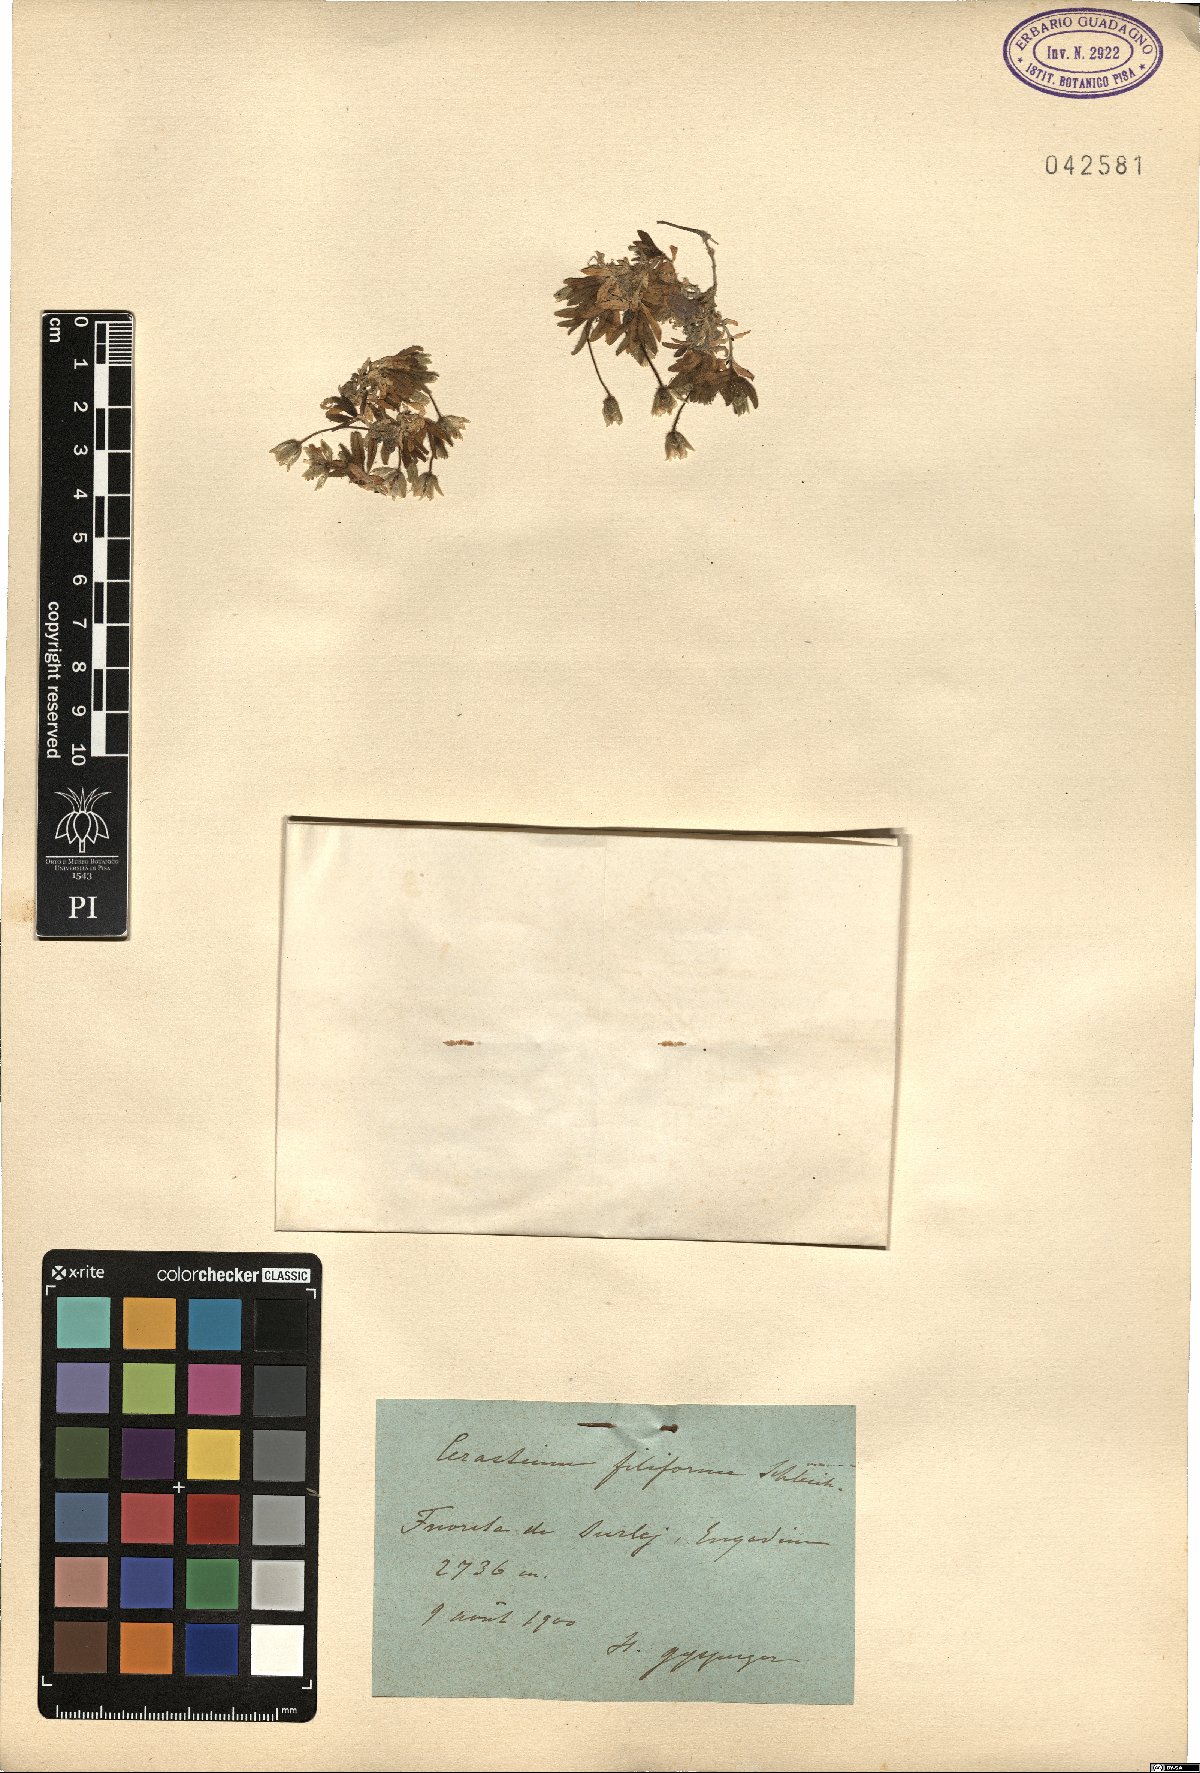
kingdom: Plantae
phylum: Tracheophyta
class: Magnoliopsida
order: Caryophyllales
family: Caryophyllaceae
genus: Cerastium
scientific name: Cerastium filifolium
